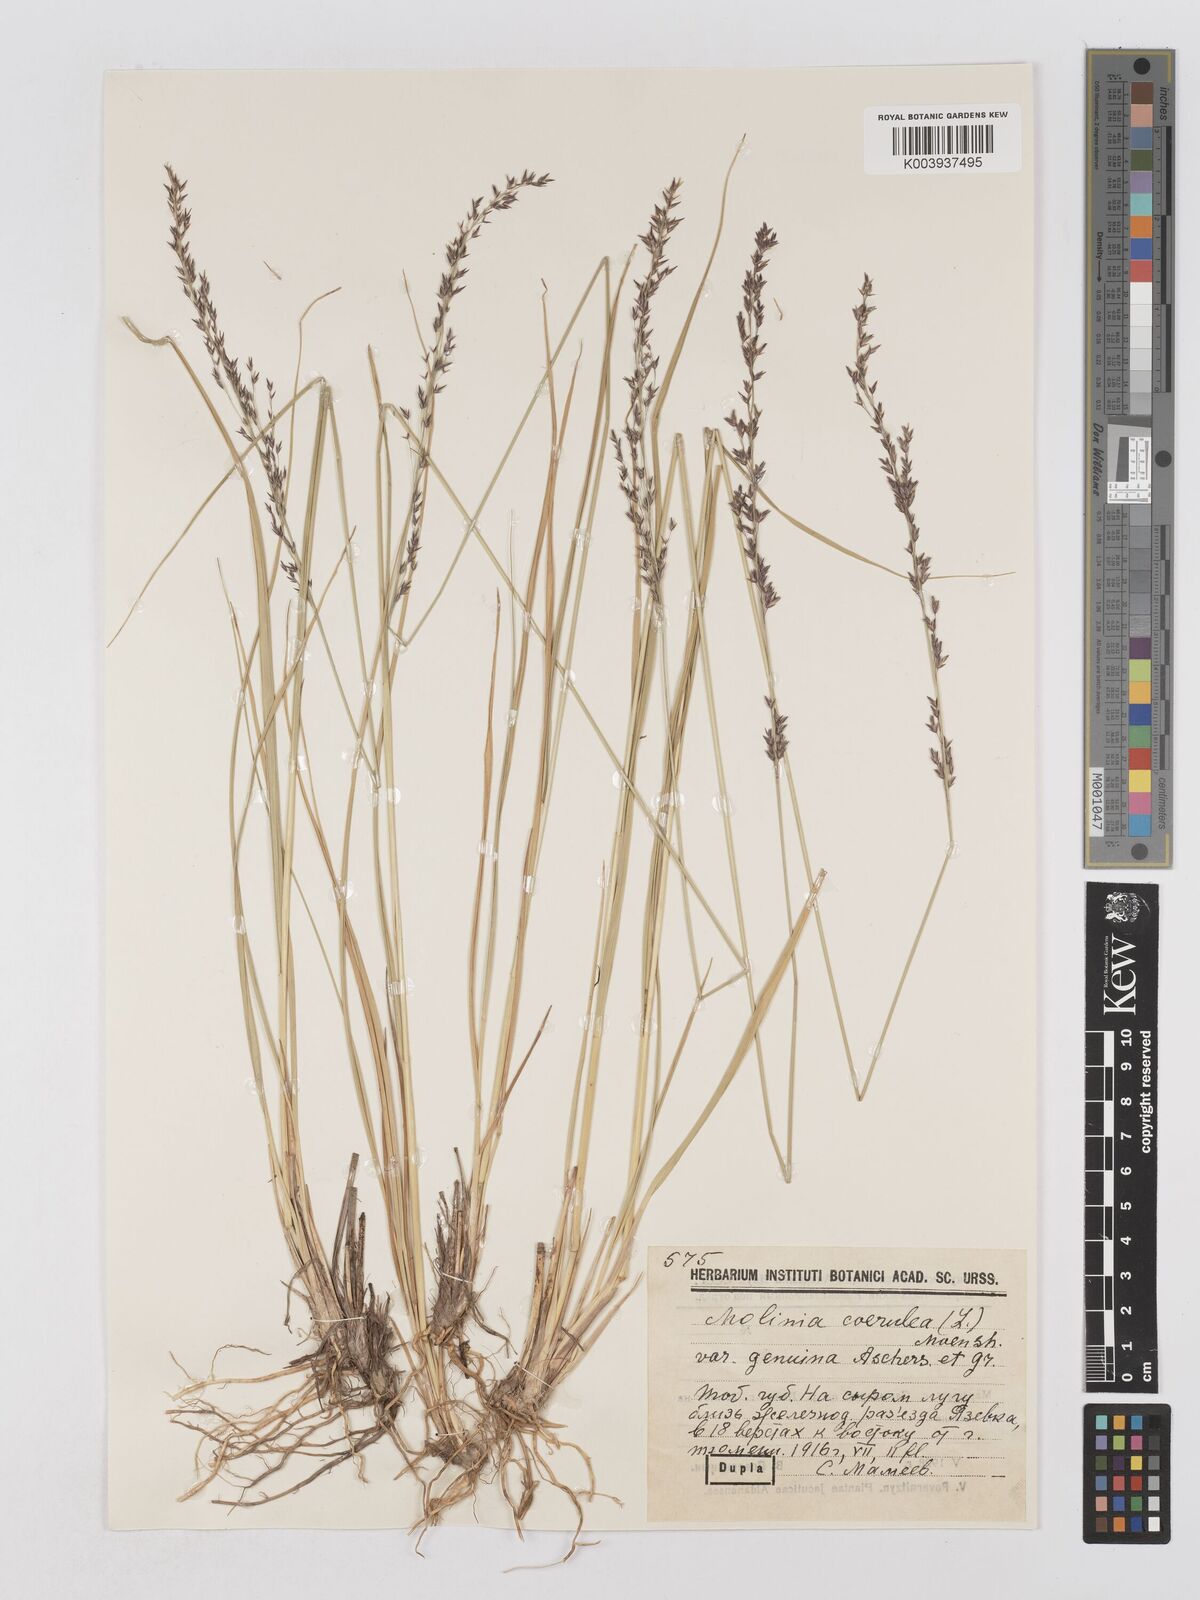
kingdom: Plantae
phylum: Tracheophyta
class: Liliopsida
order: Poales
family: Poaceae
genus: Molinia
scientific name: Molinia caerulea
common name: Purple moor-grass
